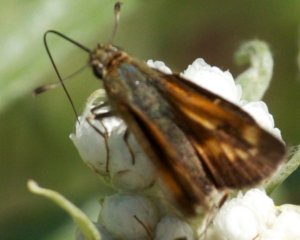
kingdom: Animalia
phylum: Arthropoda
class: Insecta
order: Lepidoptera
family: Hesperiidae
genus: Polites
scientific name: Polites
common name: Long Dash Skipper
